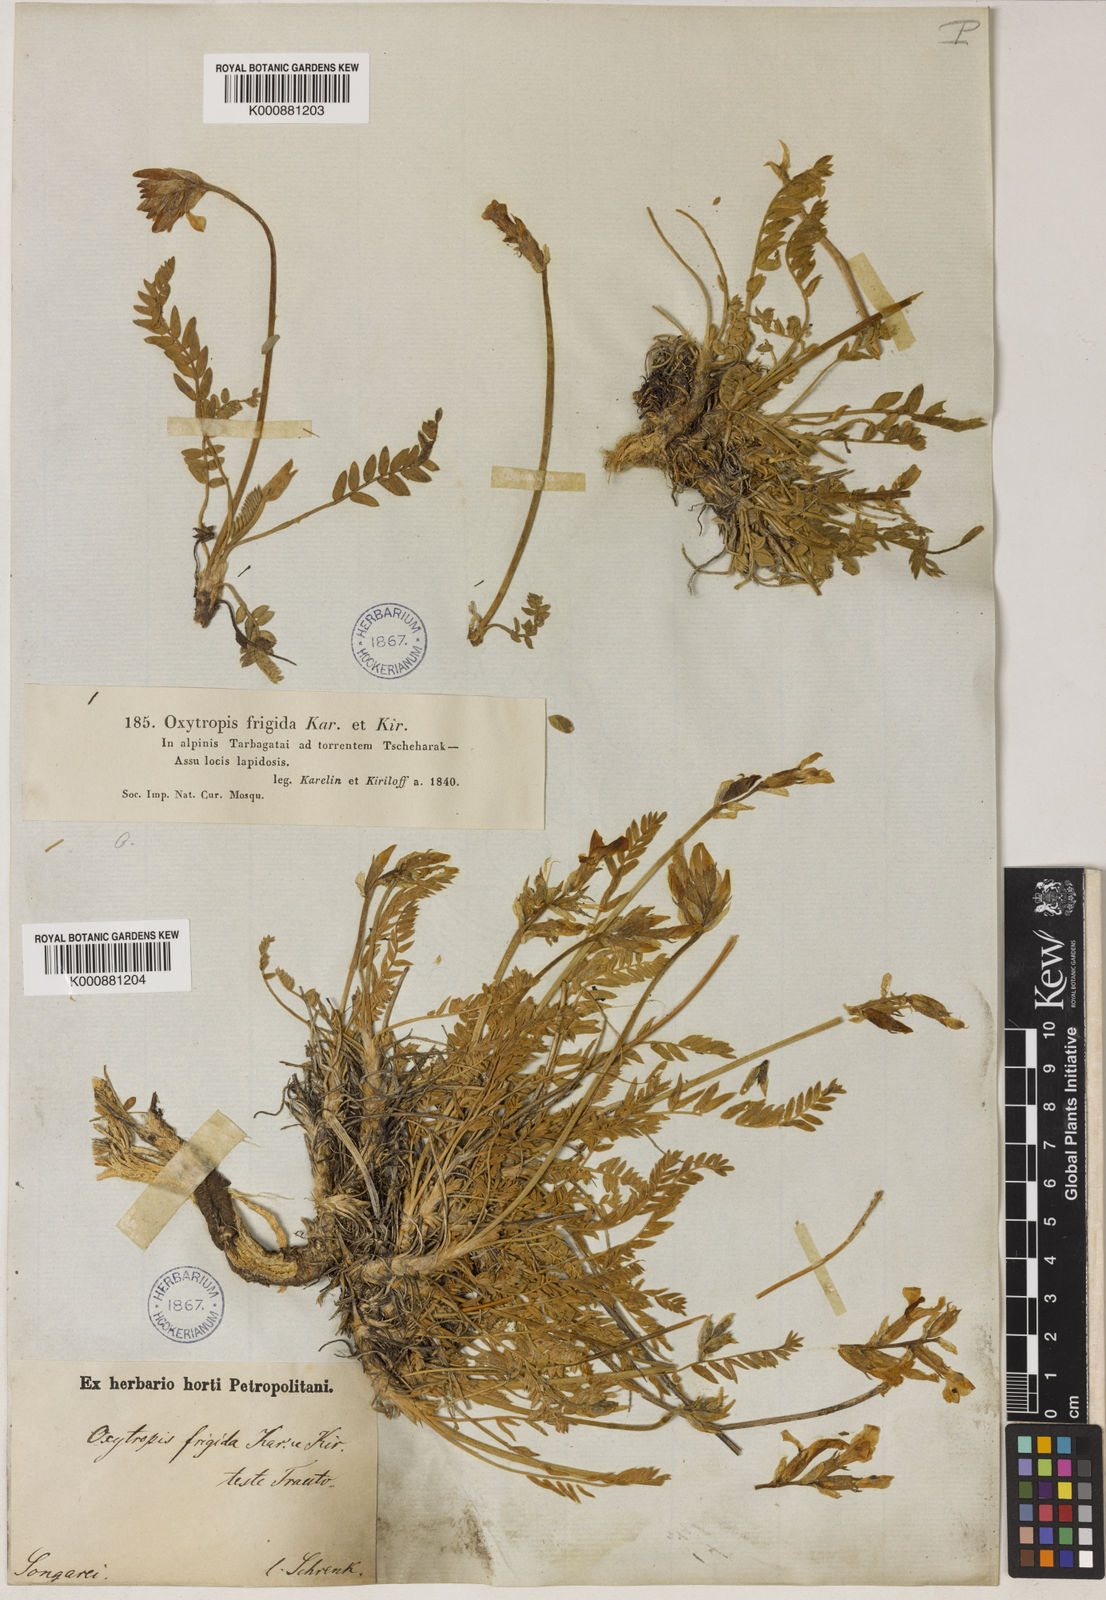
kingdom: Plantae
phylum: Tracheophyta
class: Magnoliopsida
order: Fabales
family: Fabaceae
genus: Oxytropis
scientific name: Oxytropis frigida
